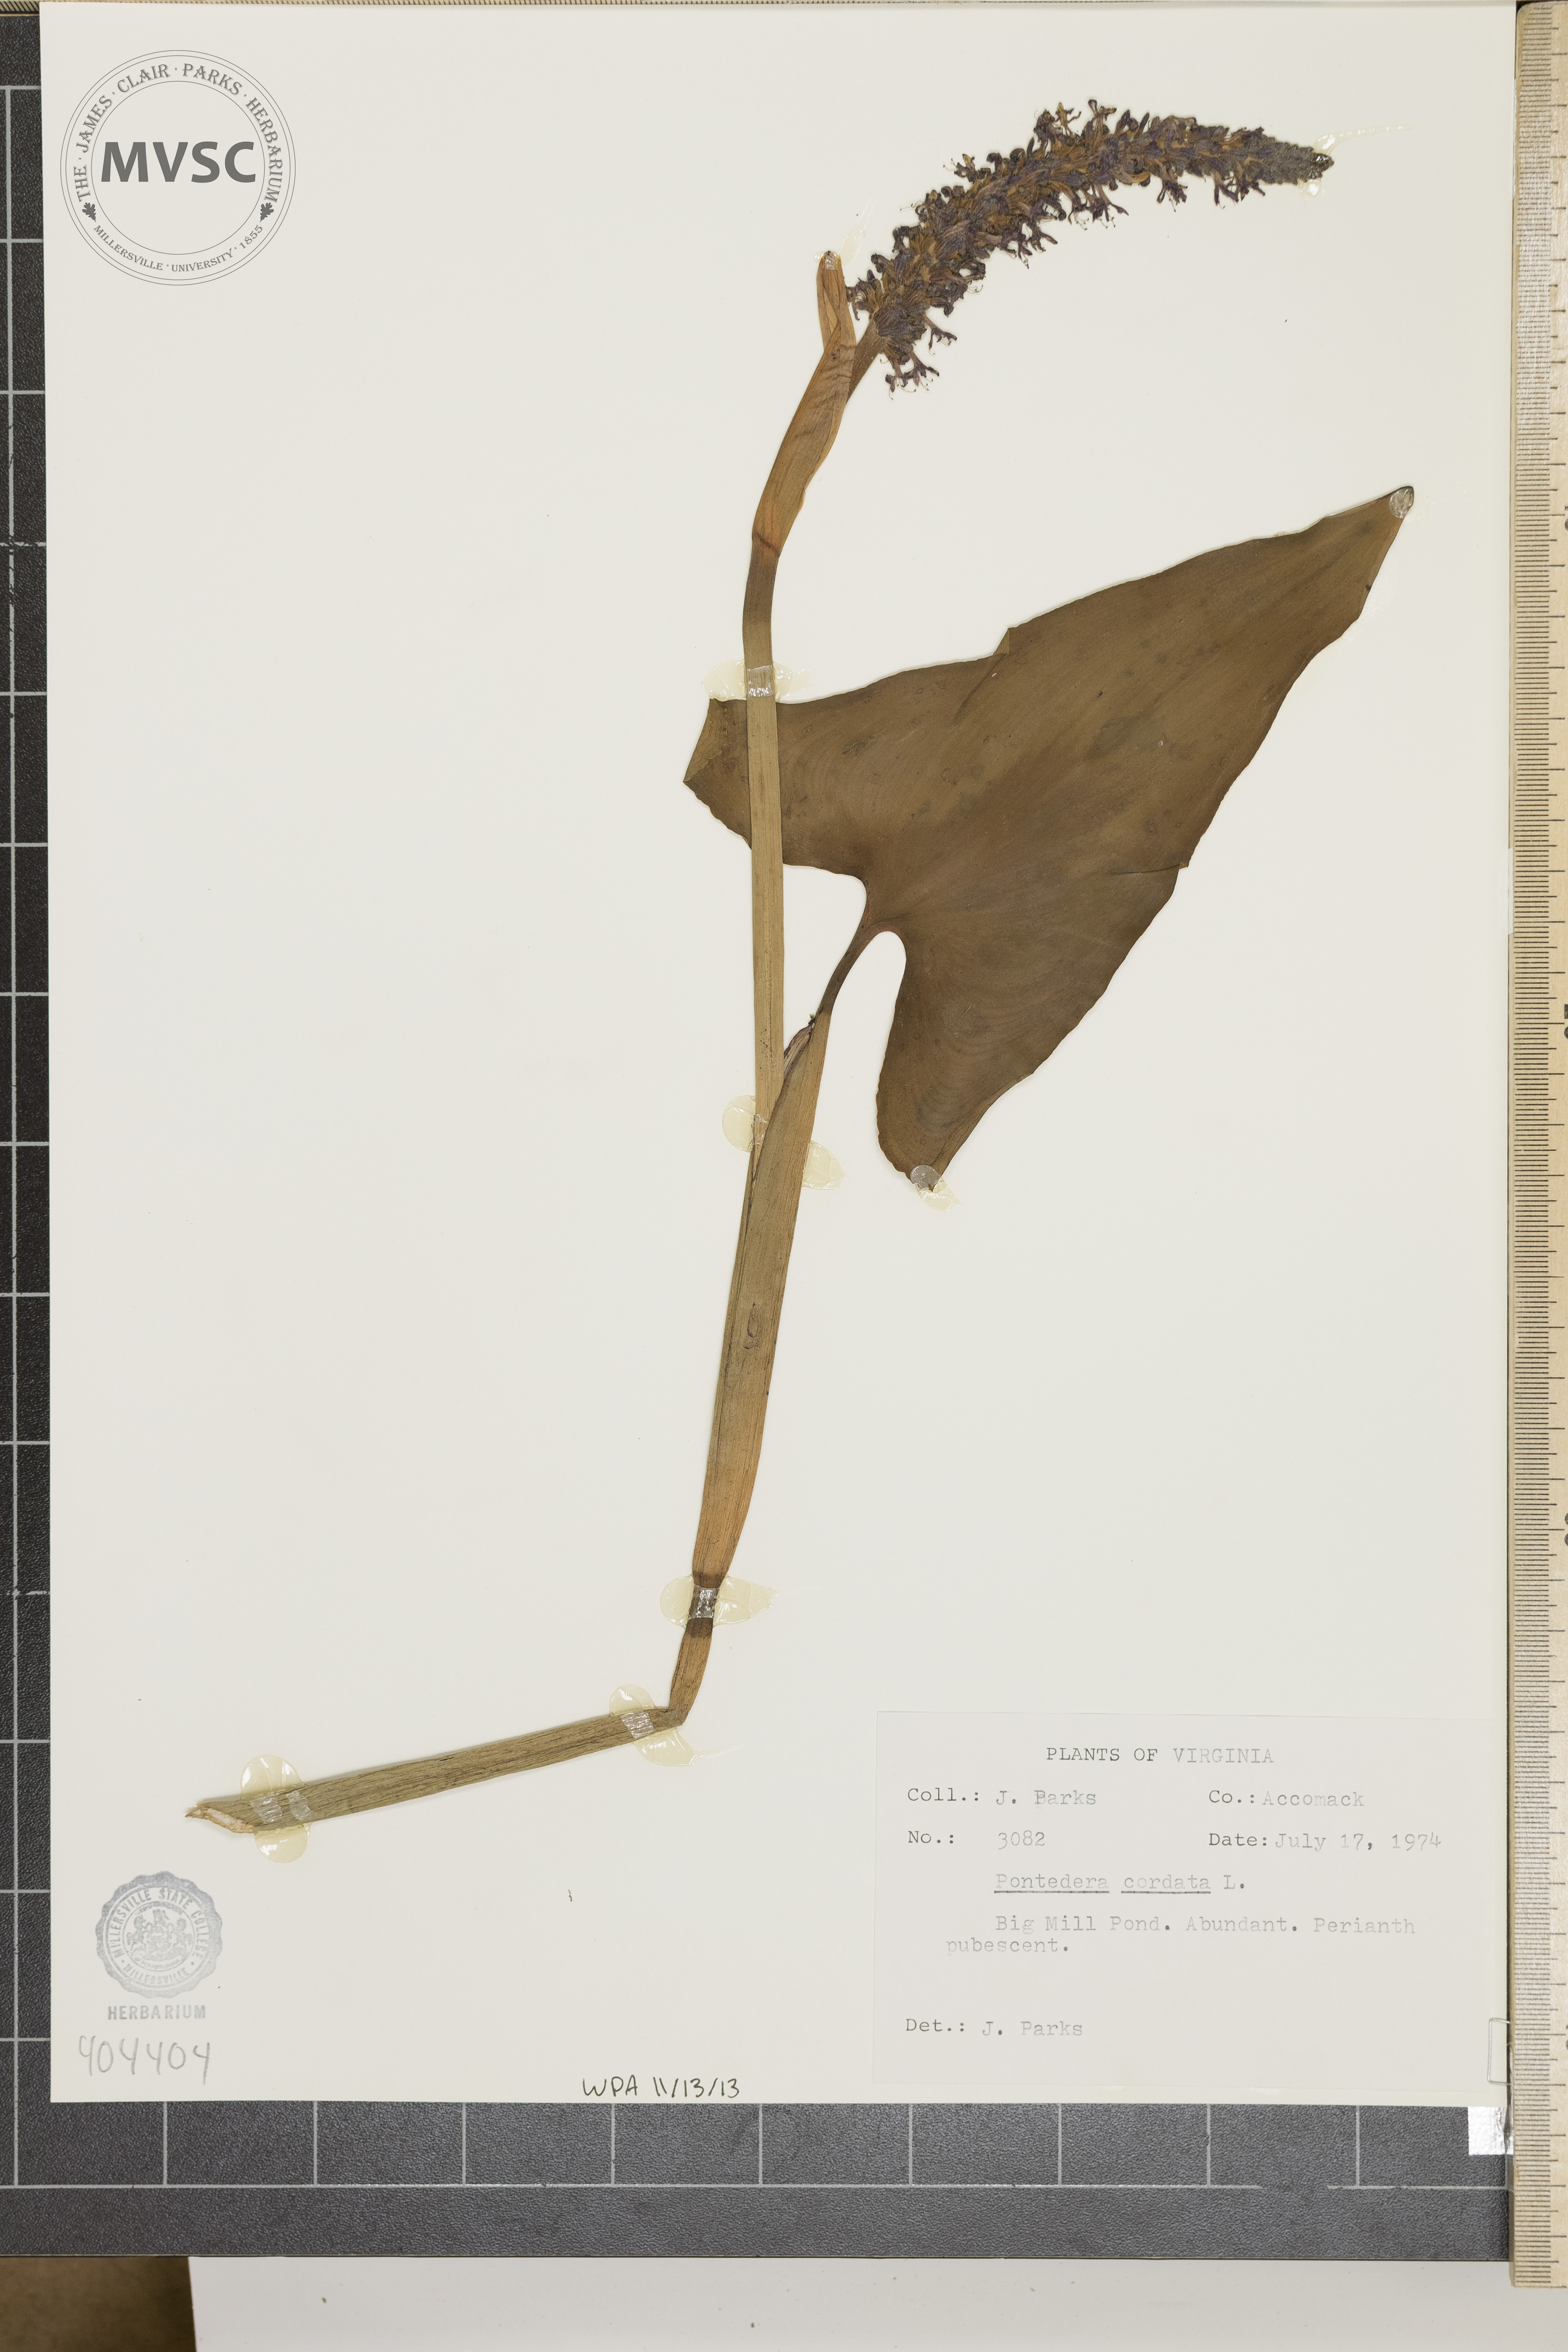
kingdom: Plantae
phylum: Tracheophyta
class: Liliopsida
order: Commelinales
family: Pontederiaceae
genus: Pontederia
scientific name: Pontederia cordata
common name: Pickerelweed
